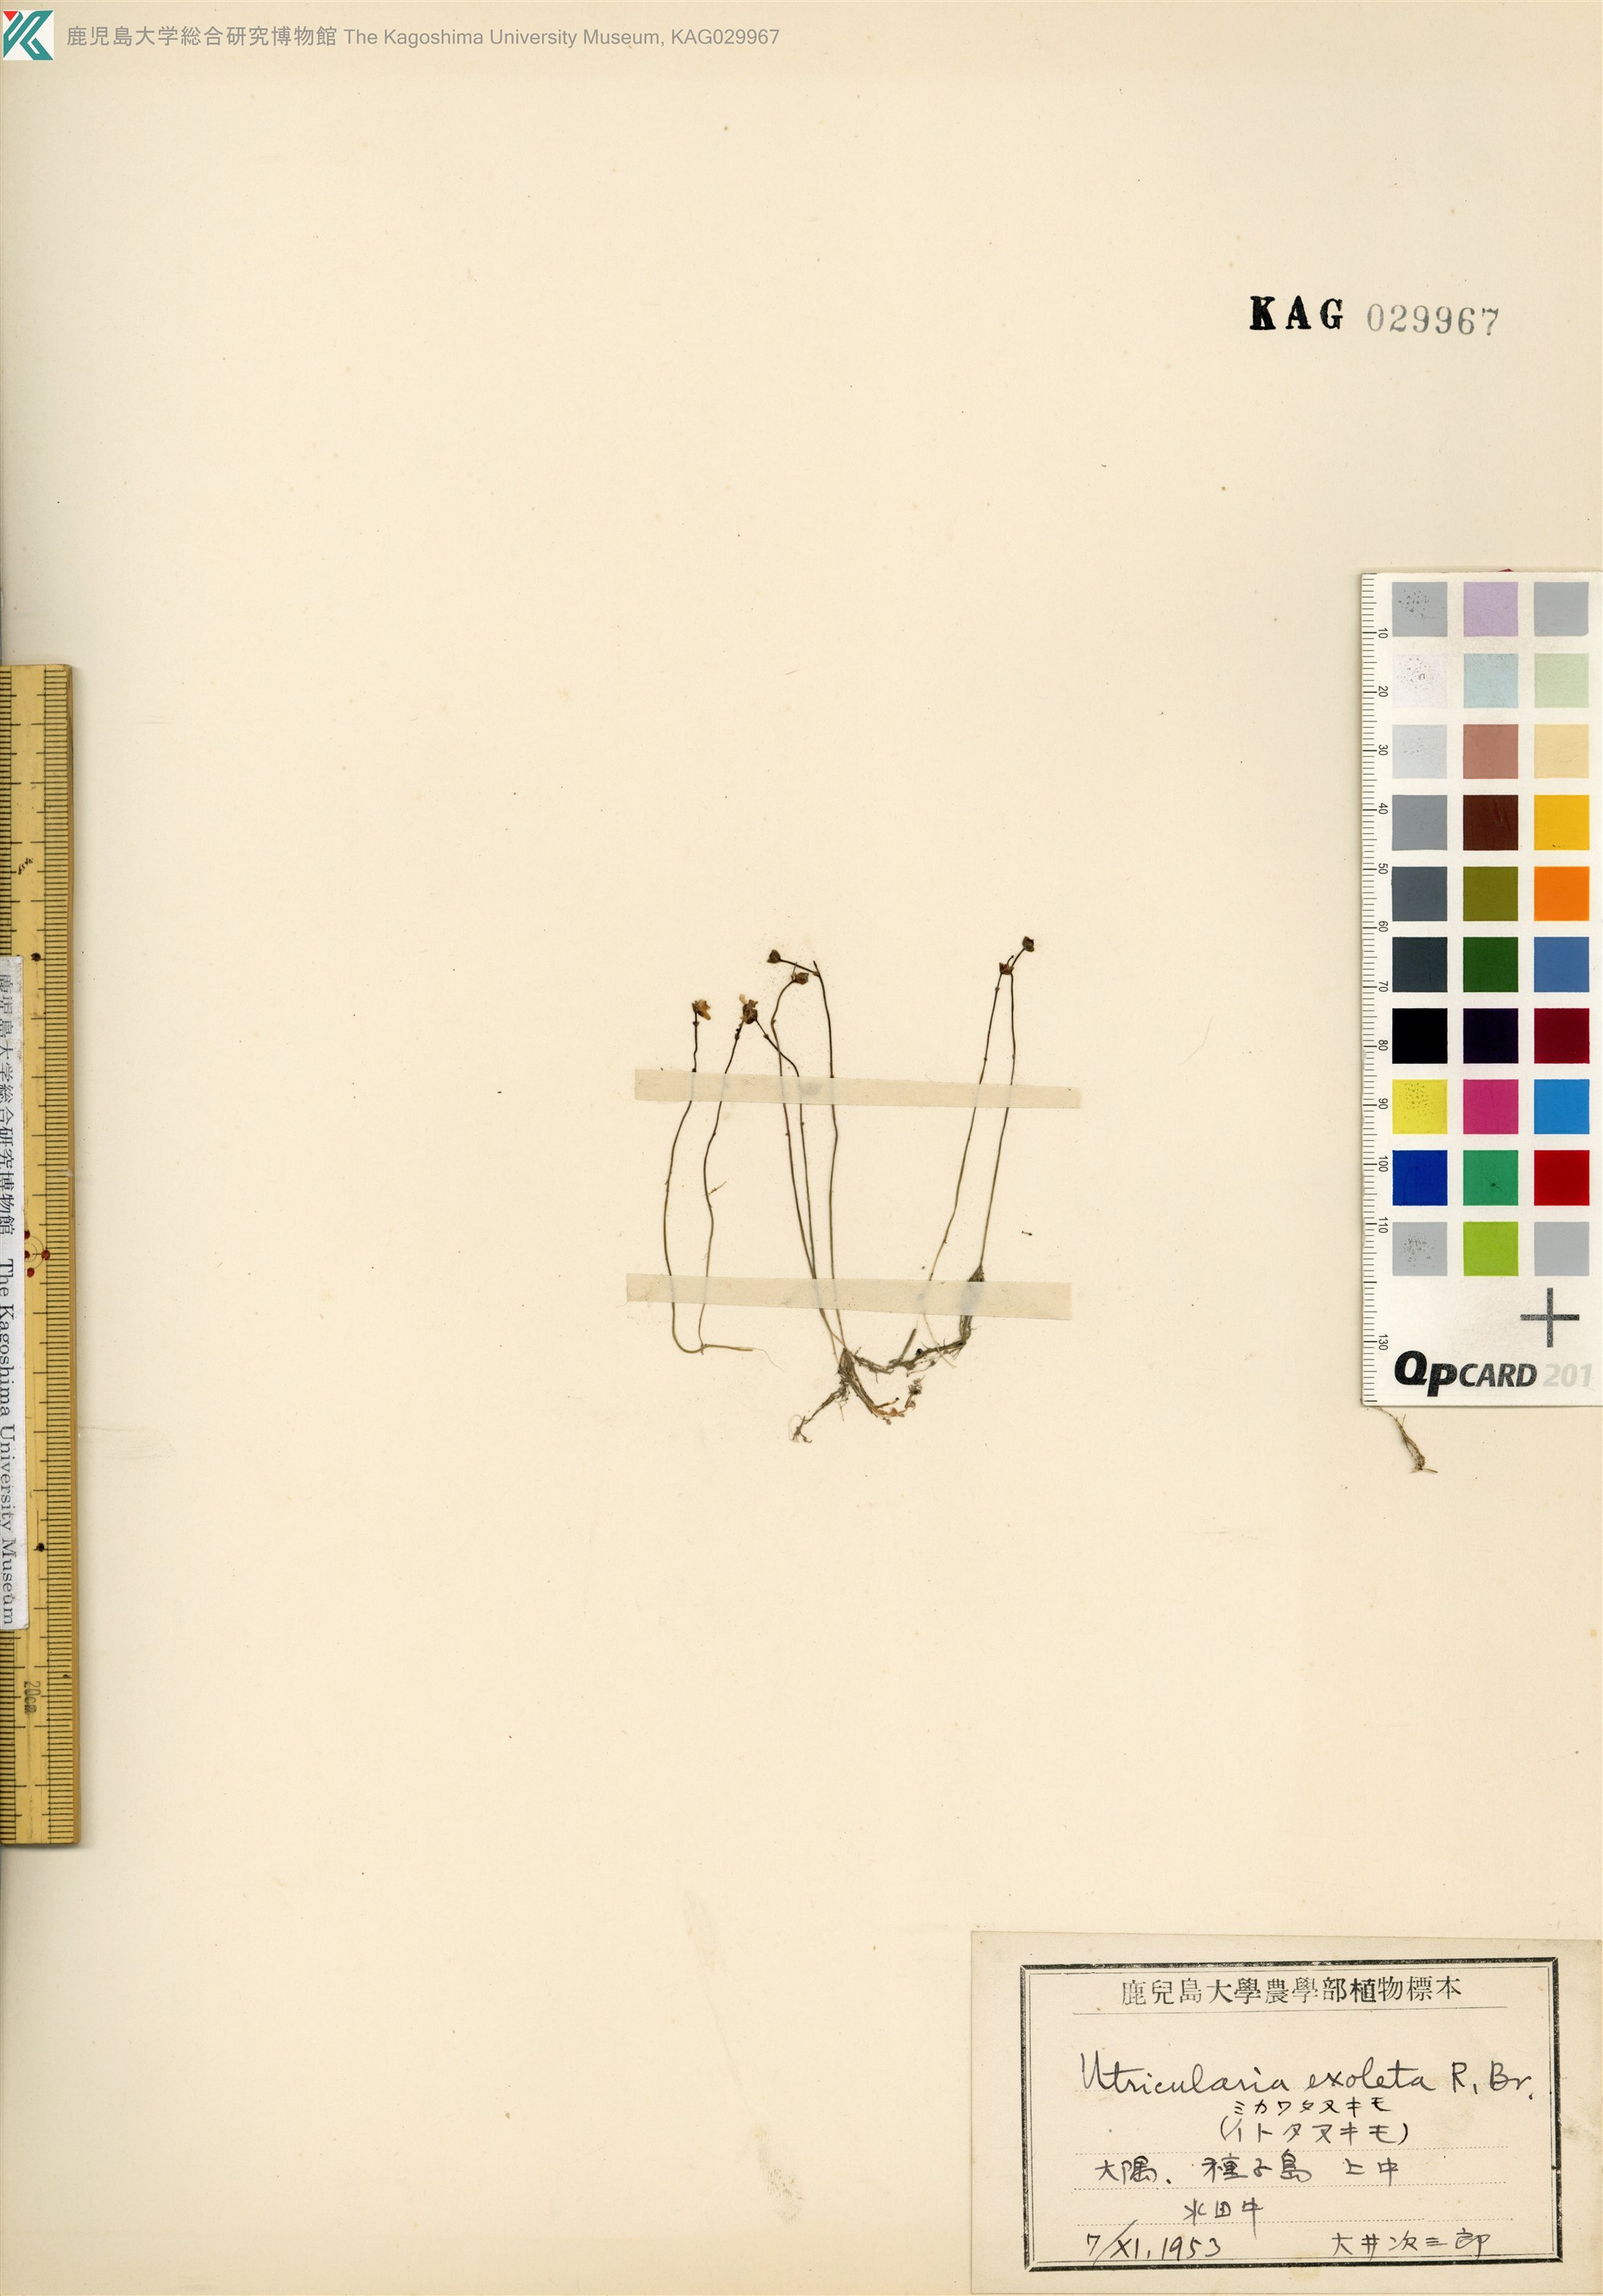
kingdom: Plantae
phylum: Tracheophyta
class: Magnoliopsida
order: Lamiales
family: Lentibulariaceae
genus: Utricularia
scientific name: Utricularia gibba
